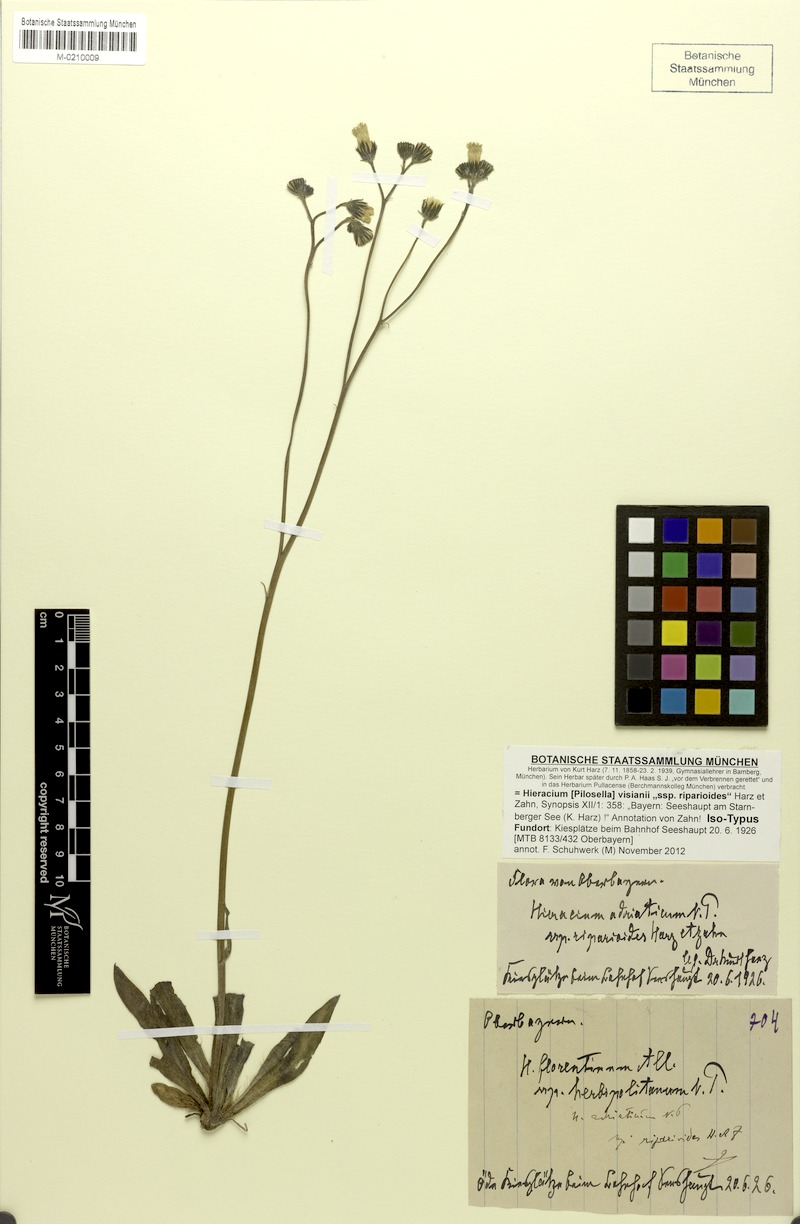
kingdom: Plantae
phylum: Tracheophyta
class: Magnoliopsida
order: Asterales
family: Asteraceae
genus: Pilosella
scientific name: Pilosella visianii
